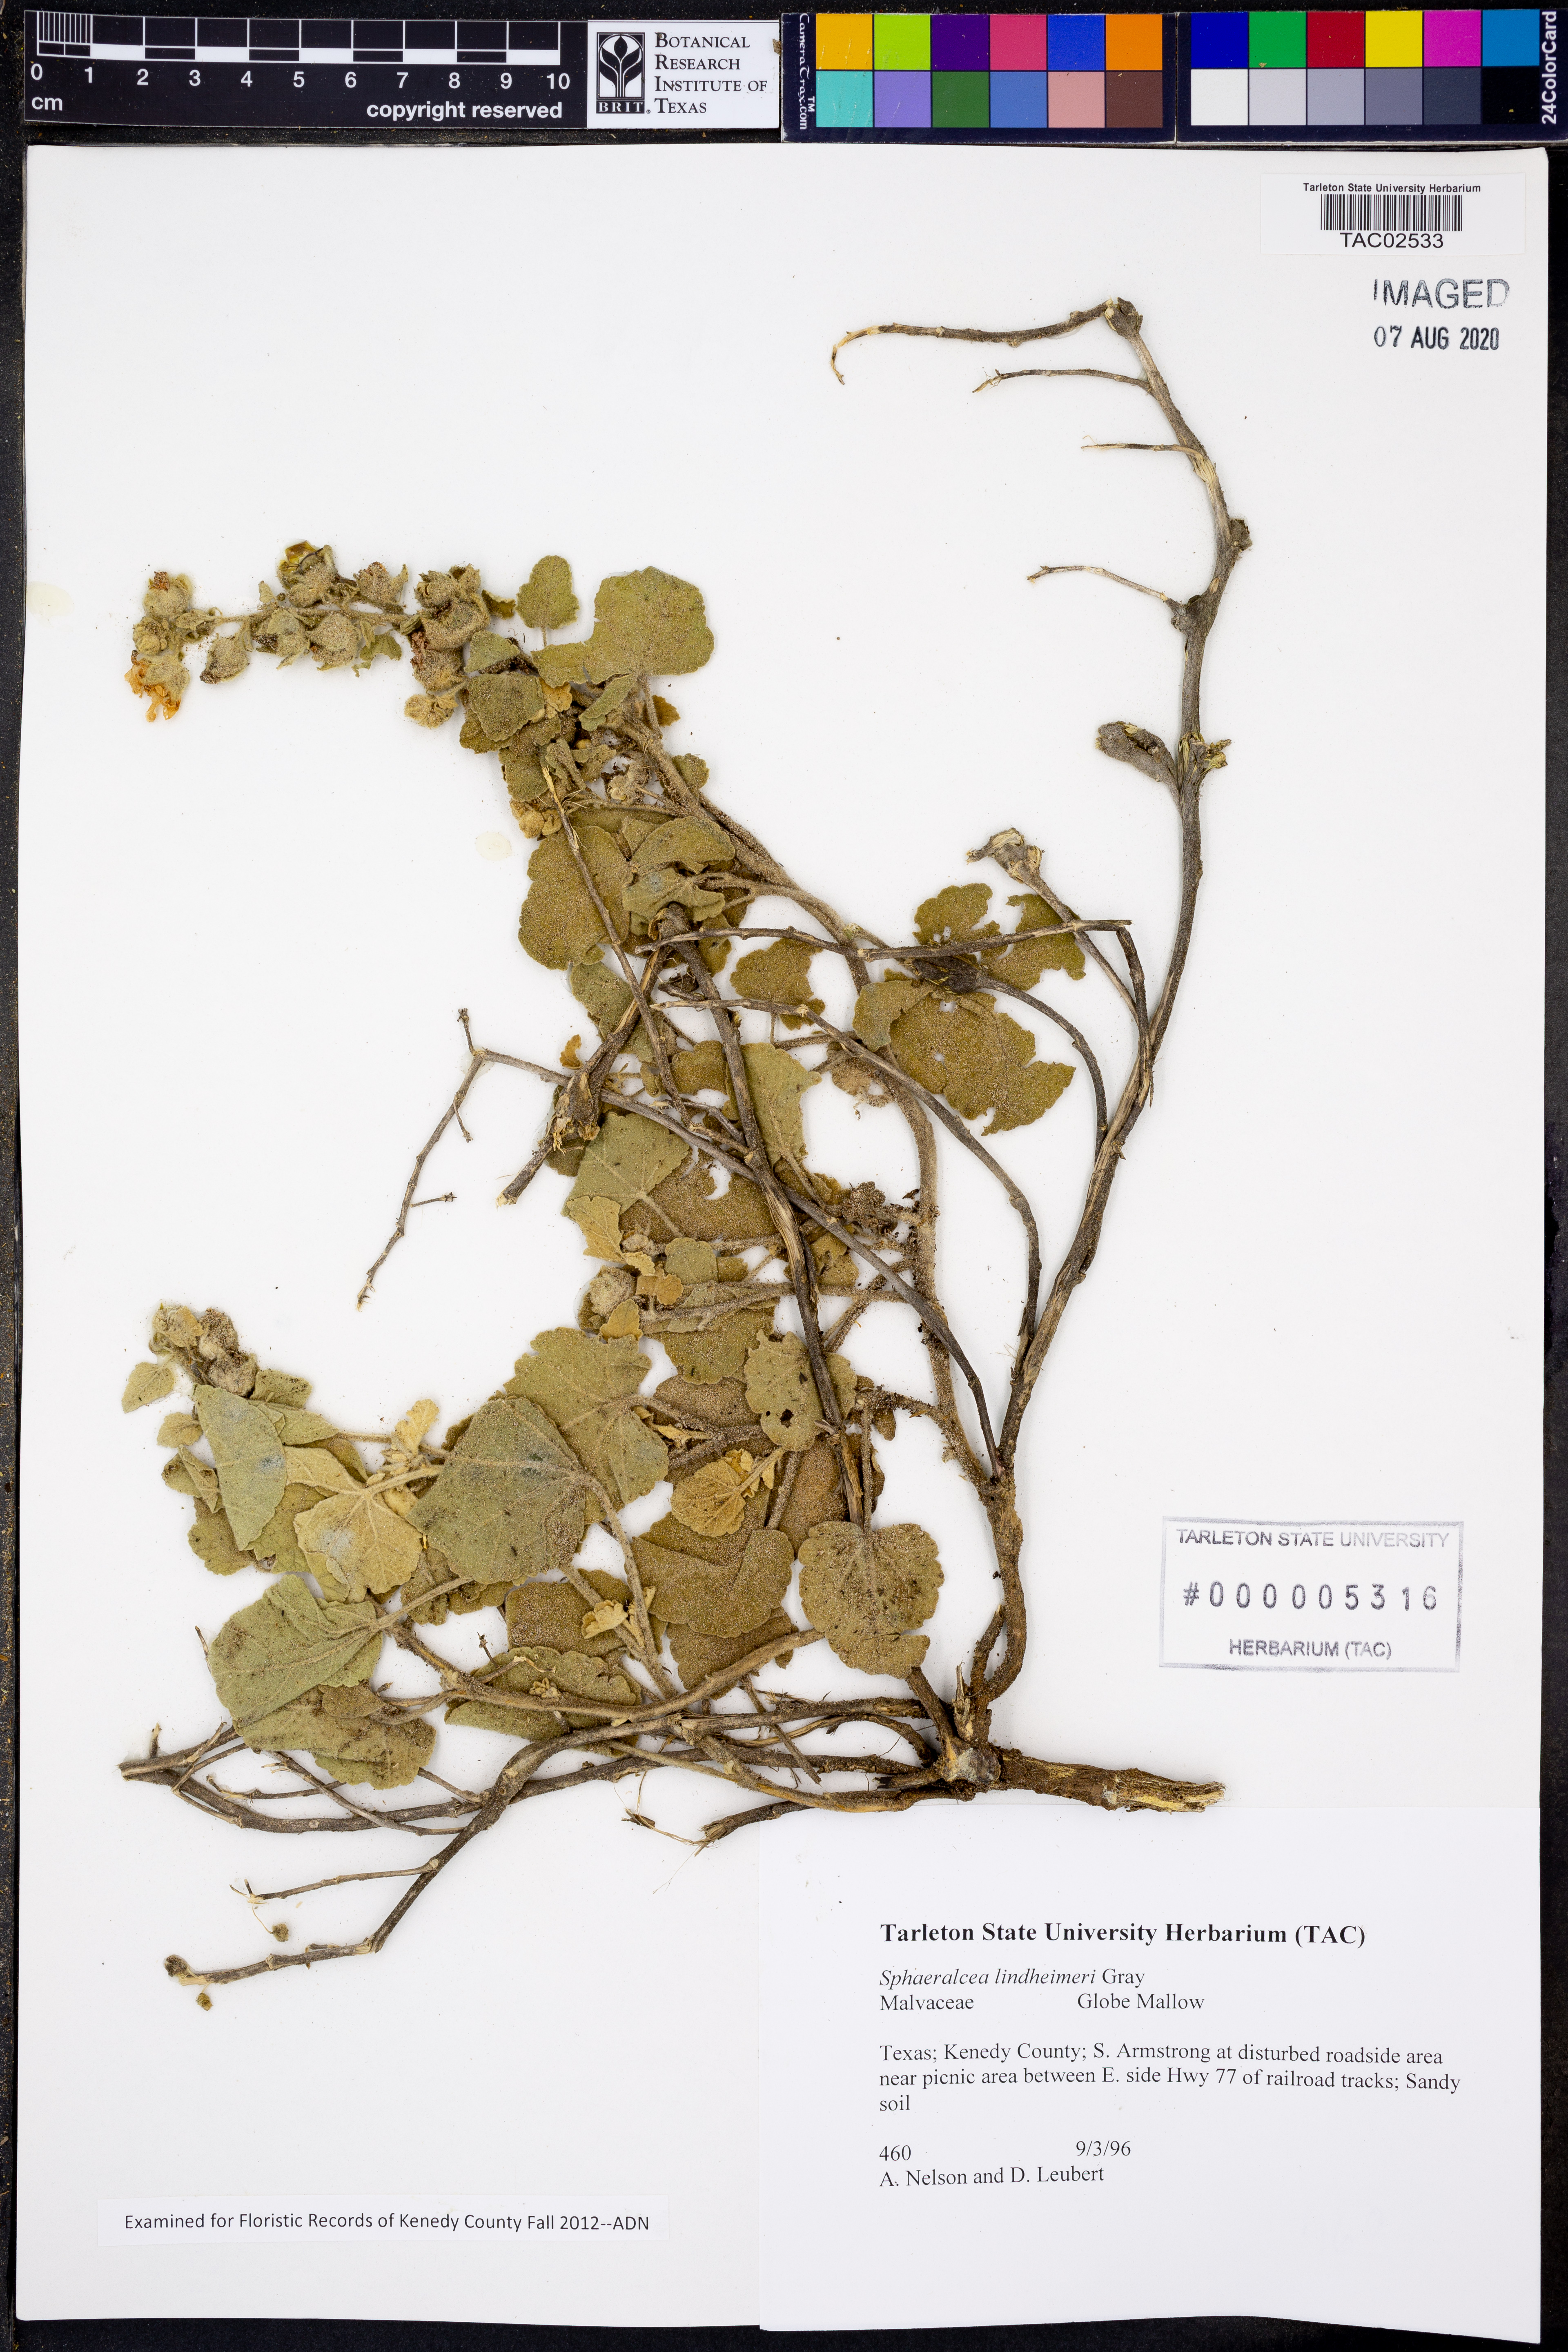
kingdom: Plantae
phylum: Tracheophyta
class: Magnoliopsida
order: Malvales
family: Malvaceae
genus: Sphaeralcea
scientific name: Sphaeralcea lindheimeri
